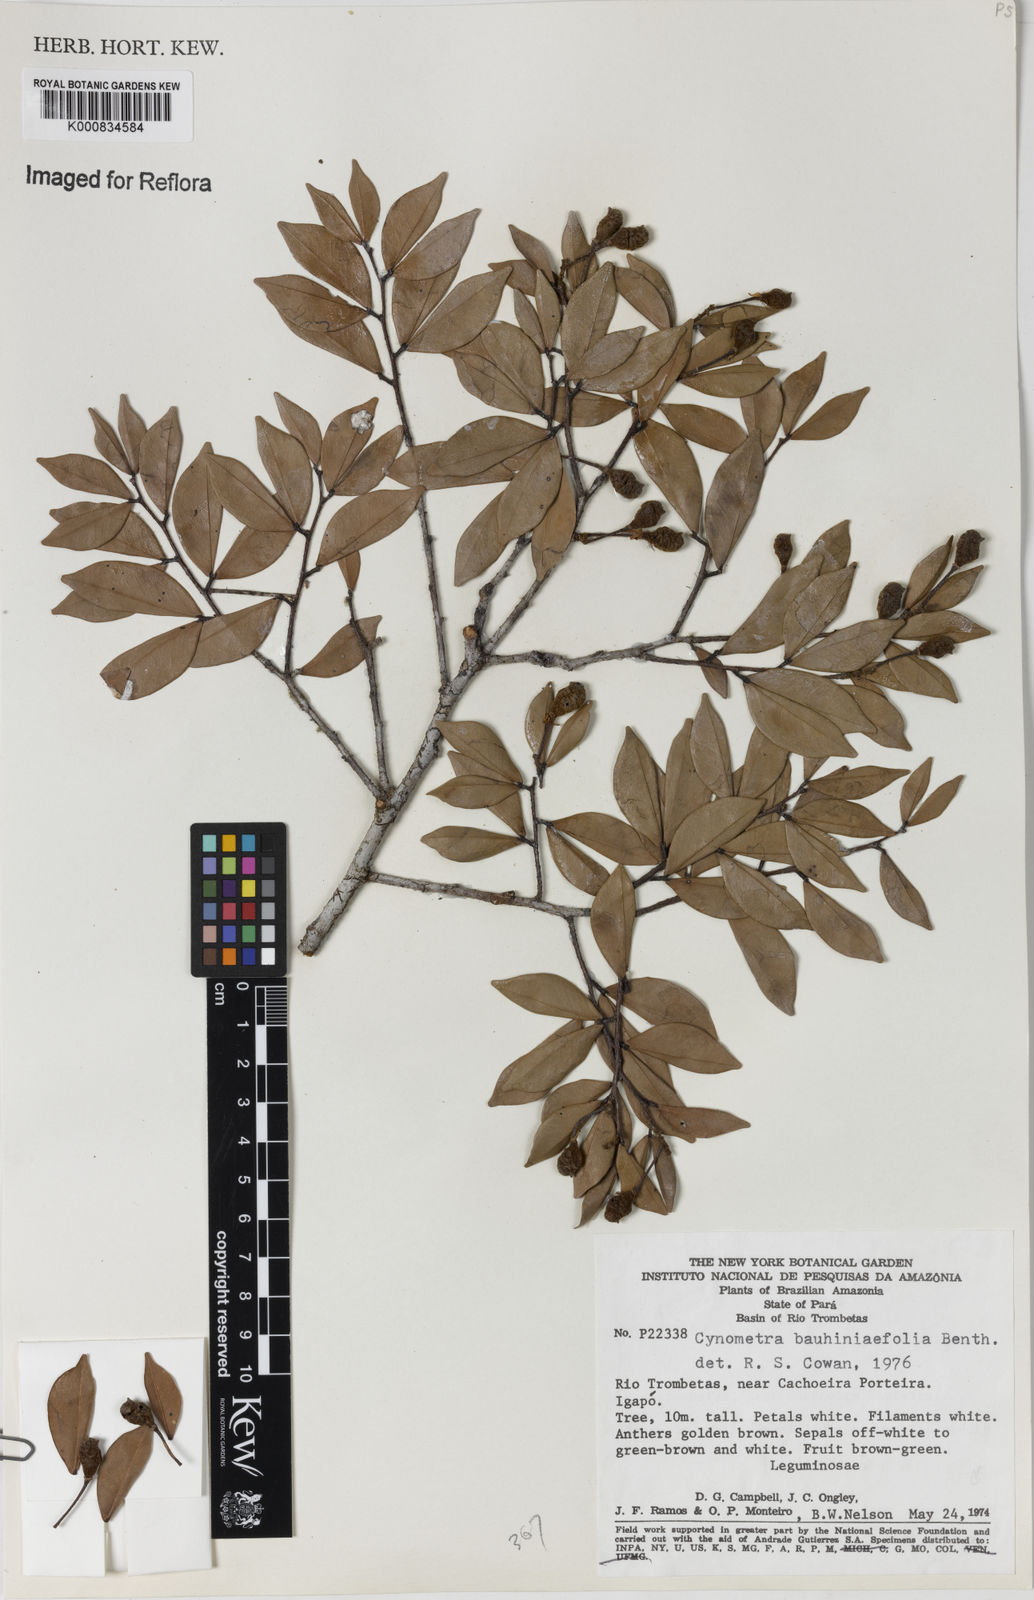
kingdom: Plantae
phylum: Tracheophyta
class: Magnoliopsida
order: Fabales
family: Fabaceae
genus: Cynometra
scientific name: Cynometra bauhiniifolia
